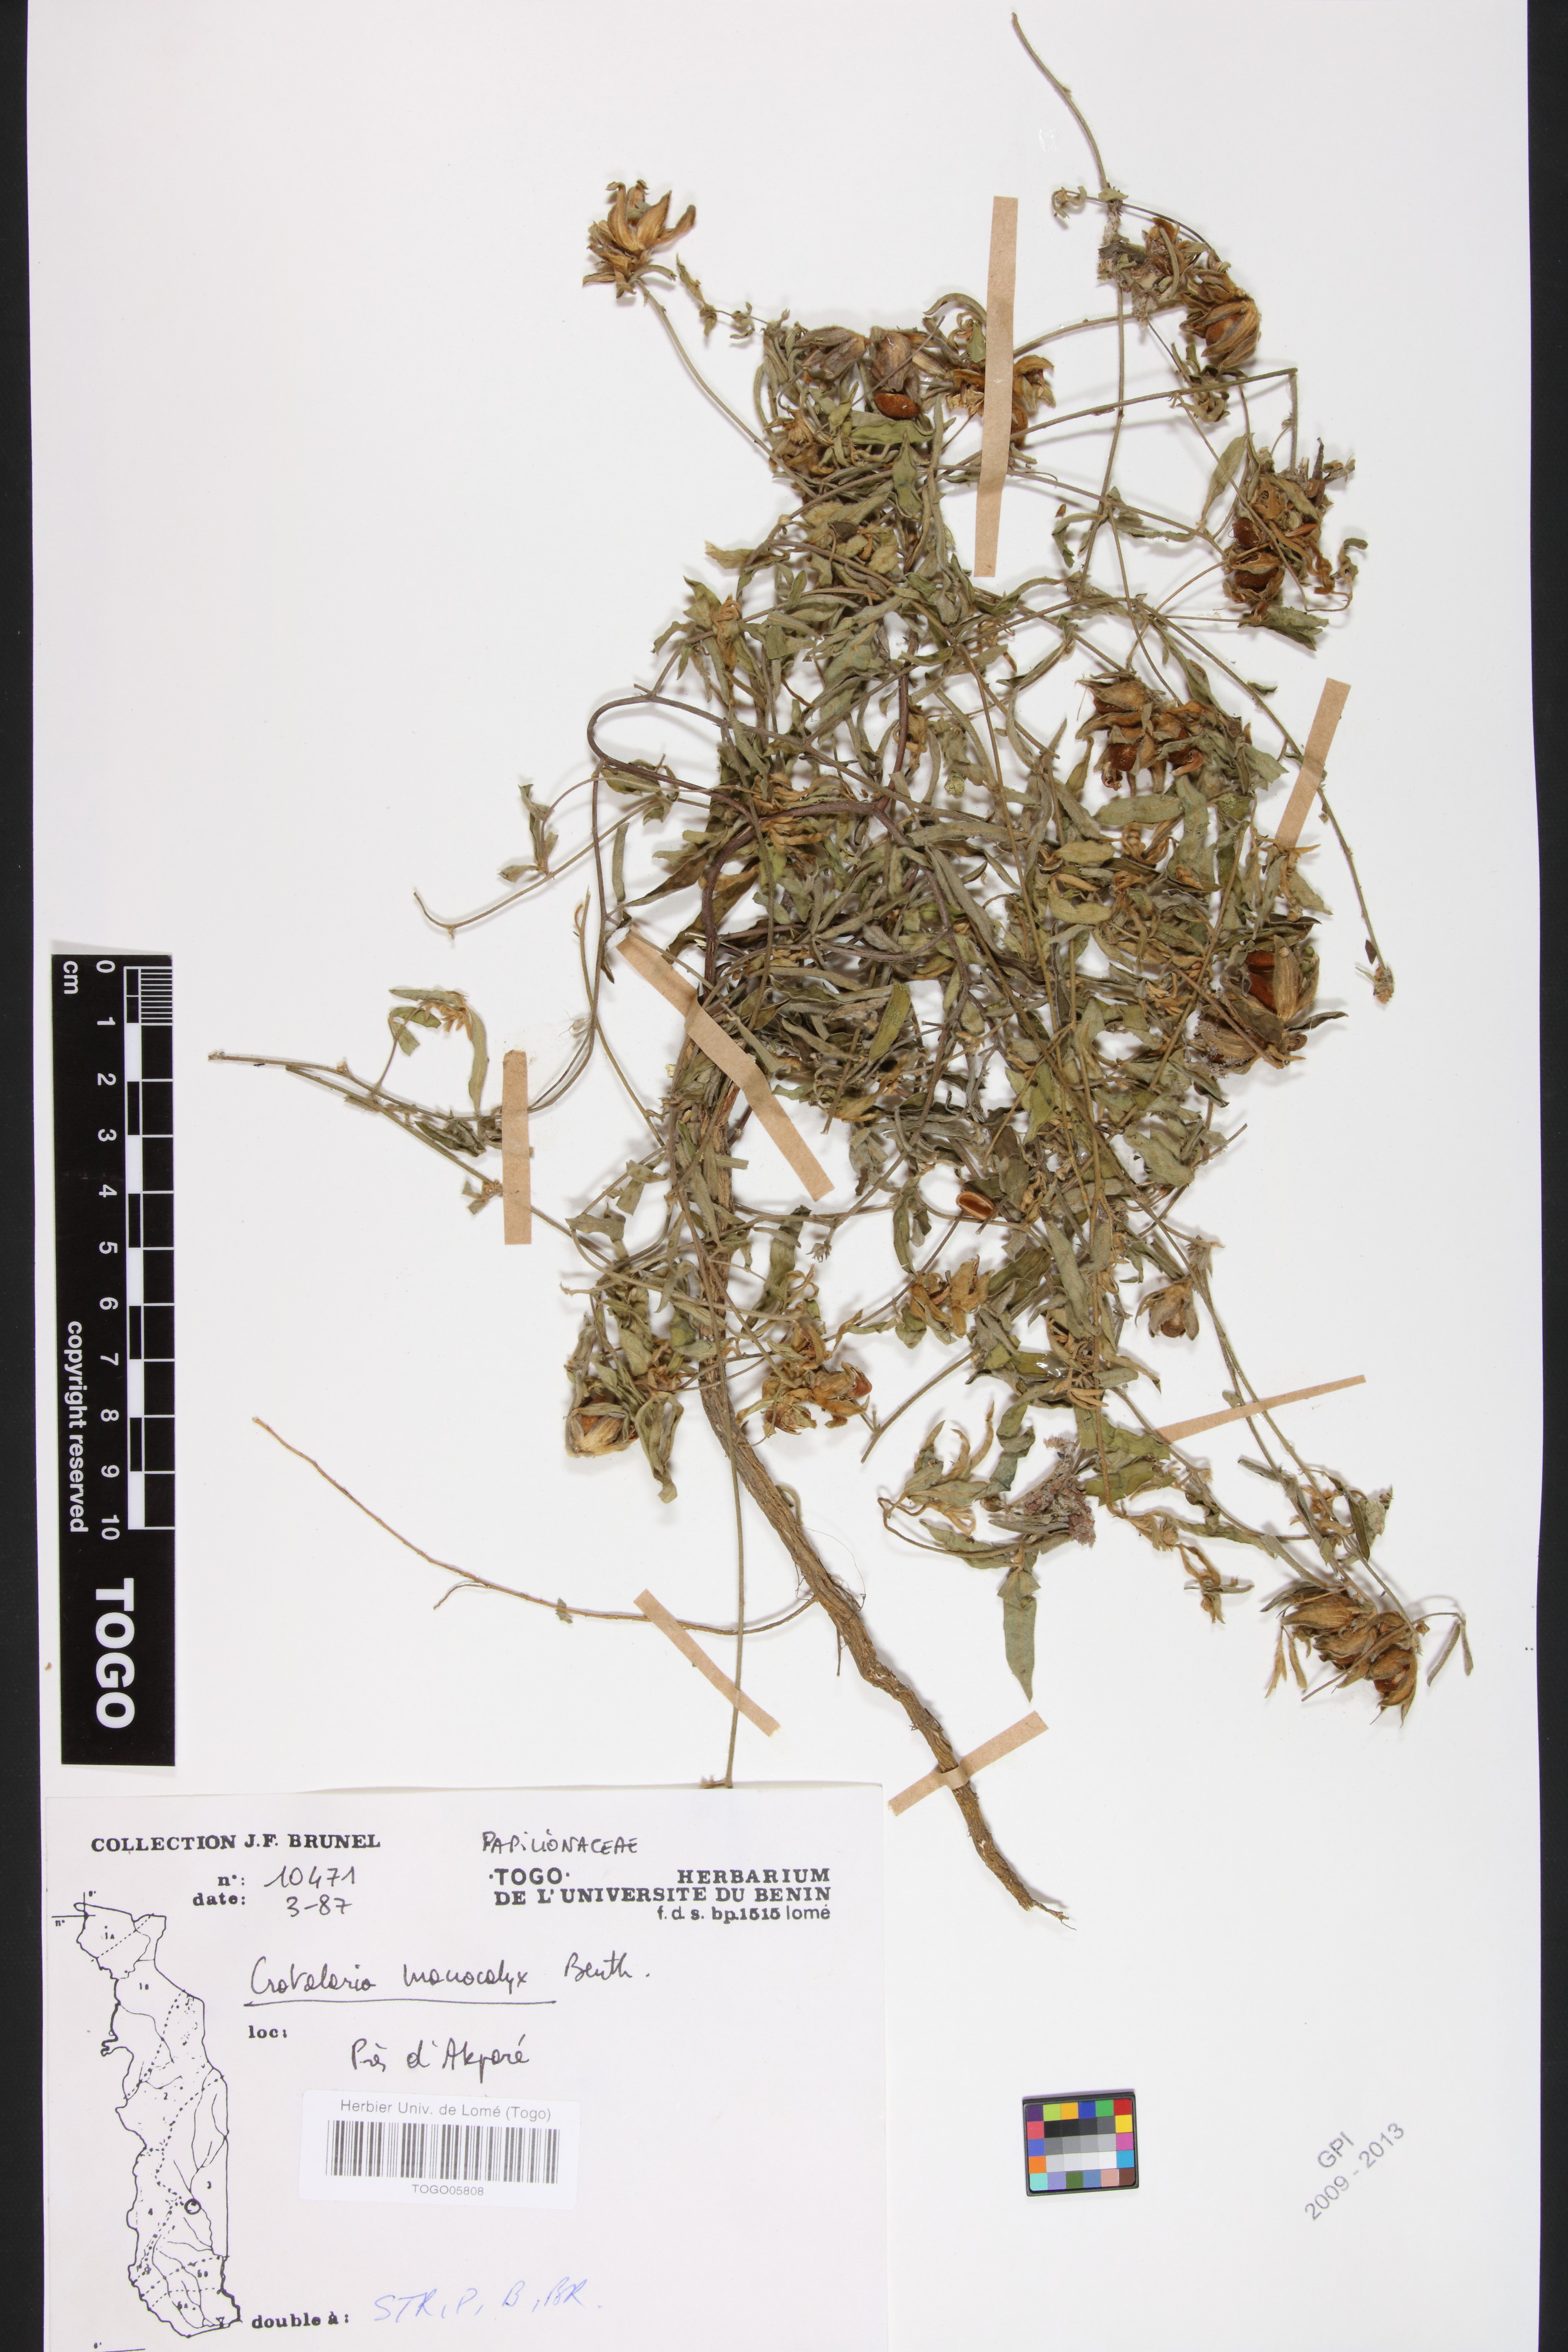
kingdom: Plantae
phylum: Tracheophyta
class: Magnoliopsida
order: Fabales
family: Fabaceae
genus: Crotalaria
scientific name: Crotalaria macrocalyx
